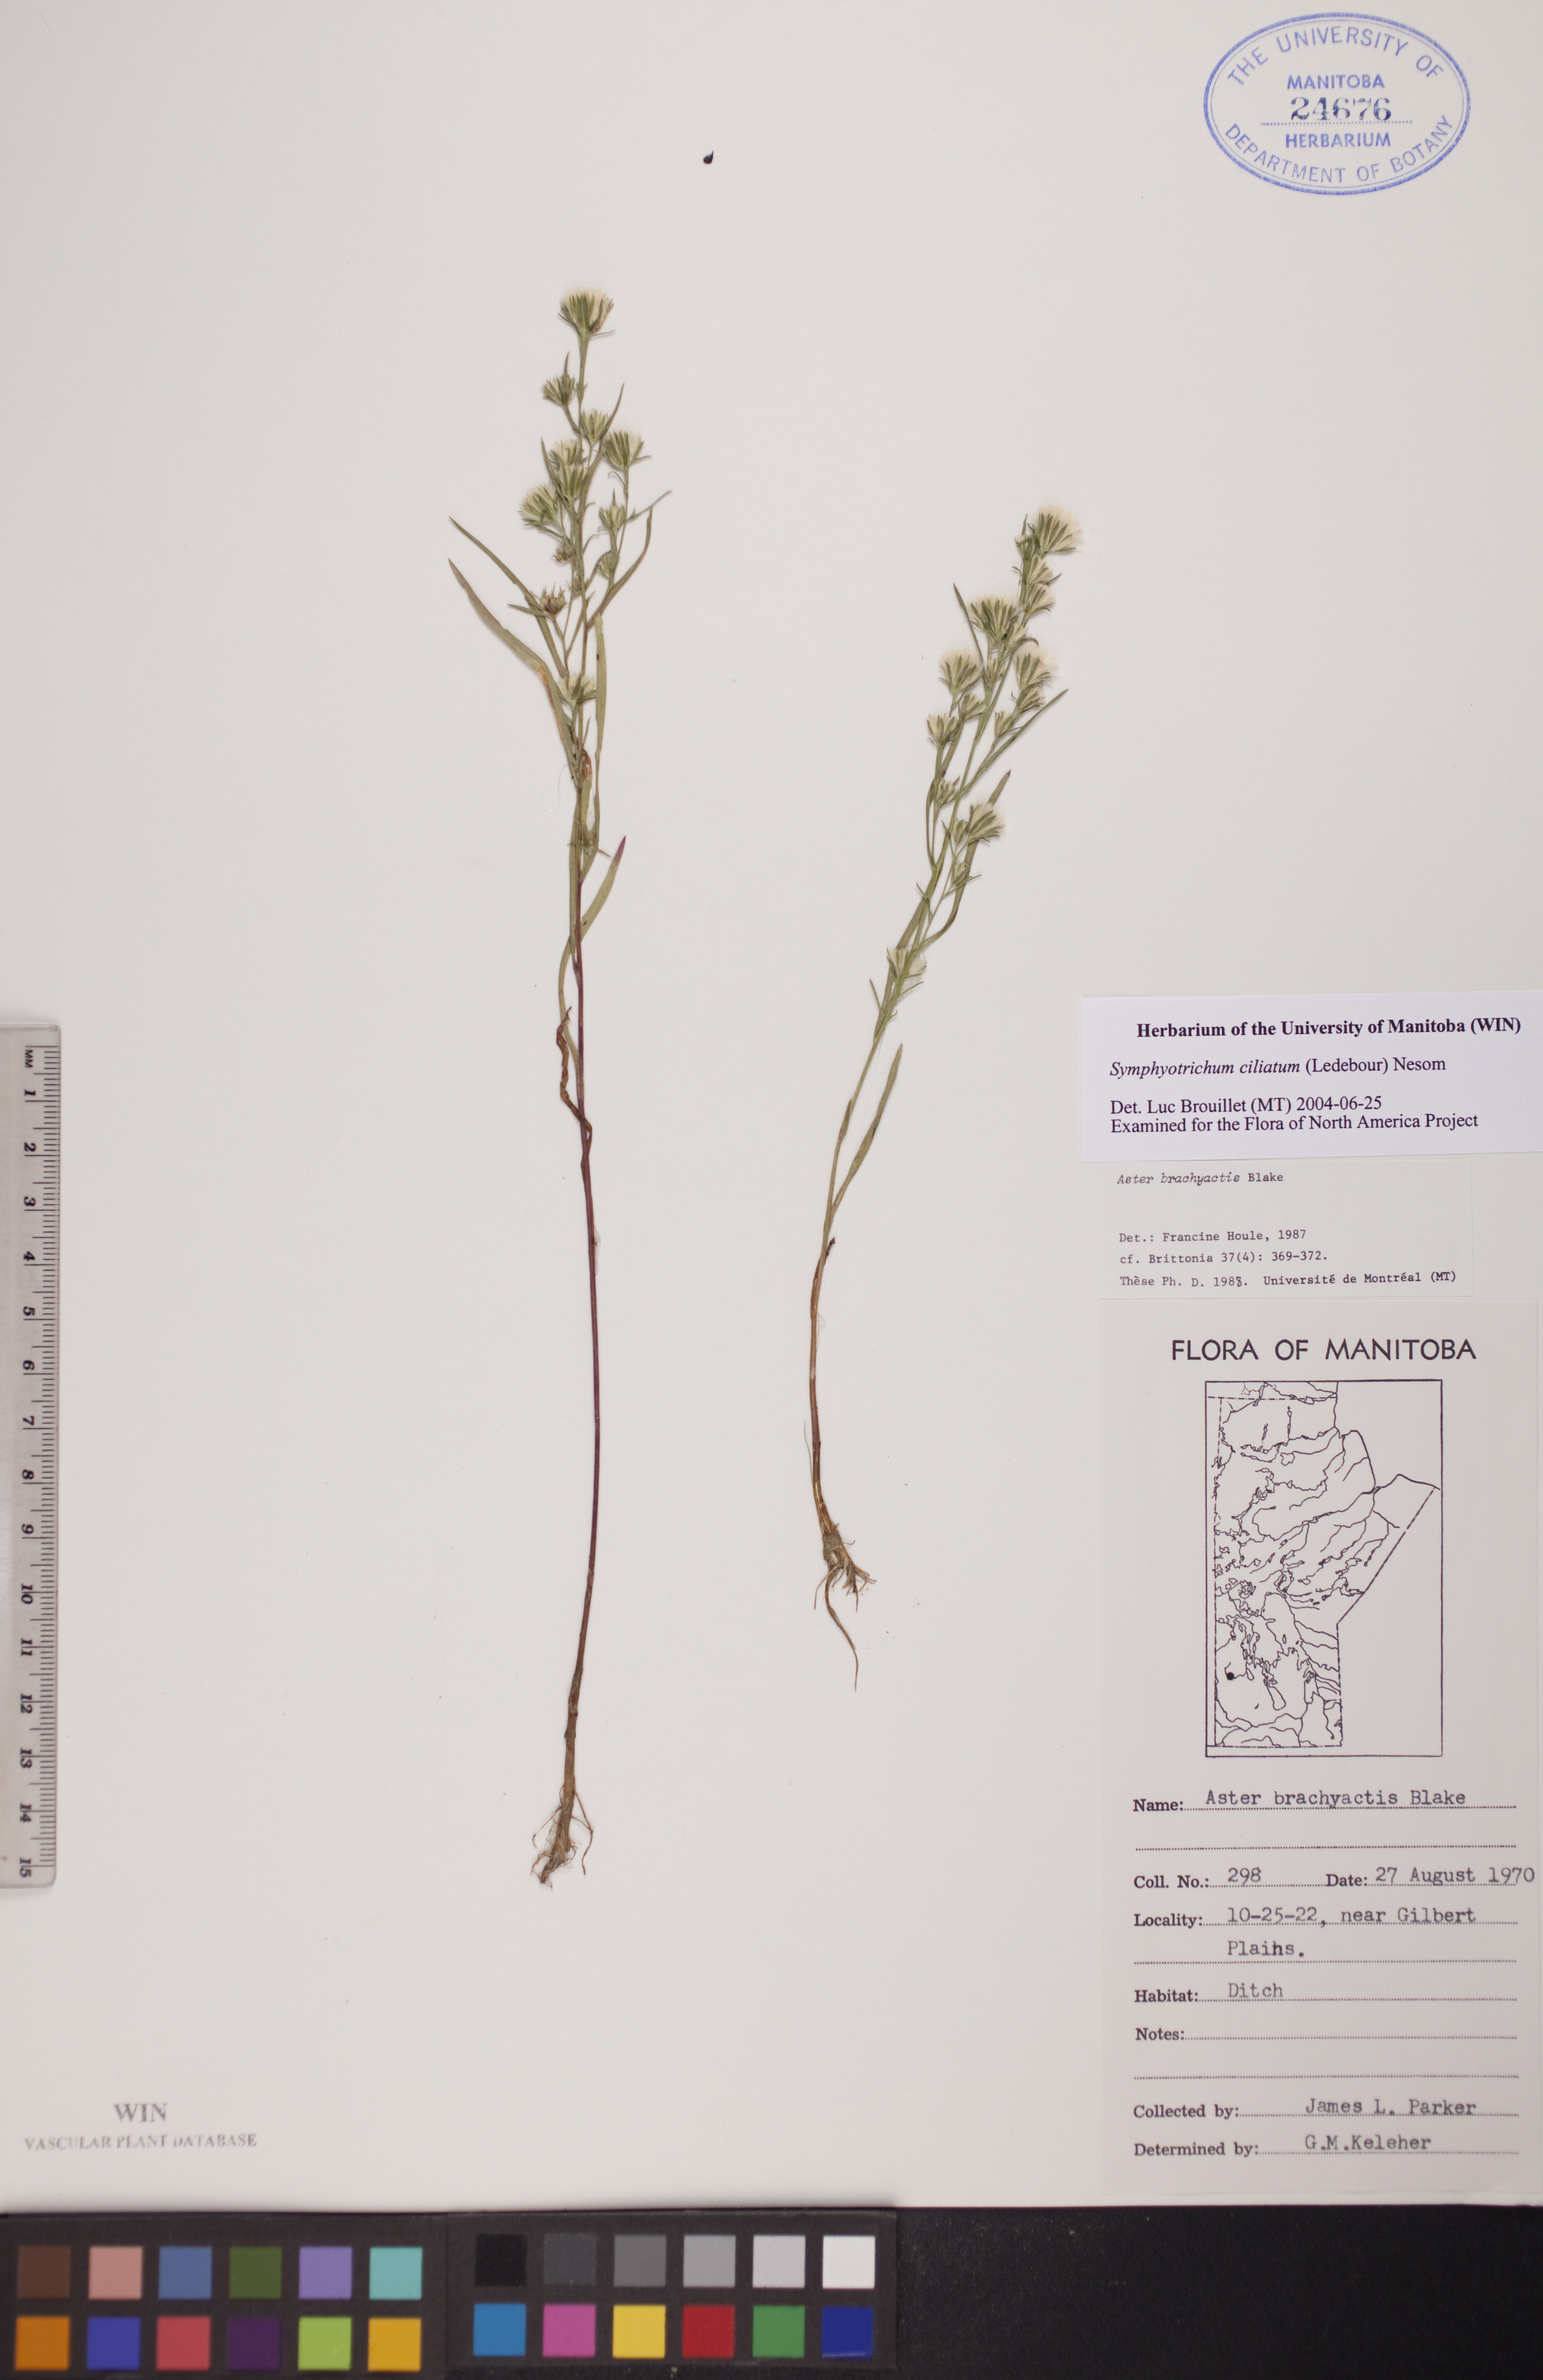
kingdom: Plantae
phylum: Tracheophyta
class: Magnoliopsida
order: Asterales
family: Asteraceae
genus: Symphyotrichum
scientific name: Symphyotrichum ciliatum
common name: Rayless annual aster
